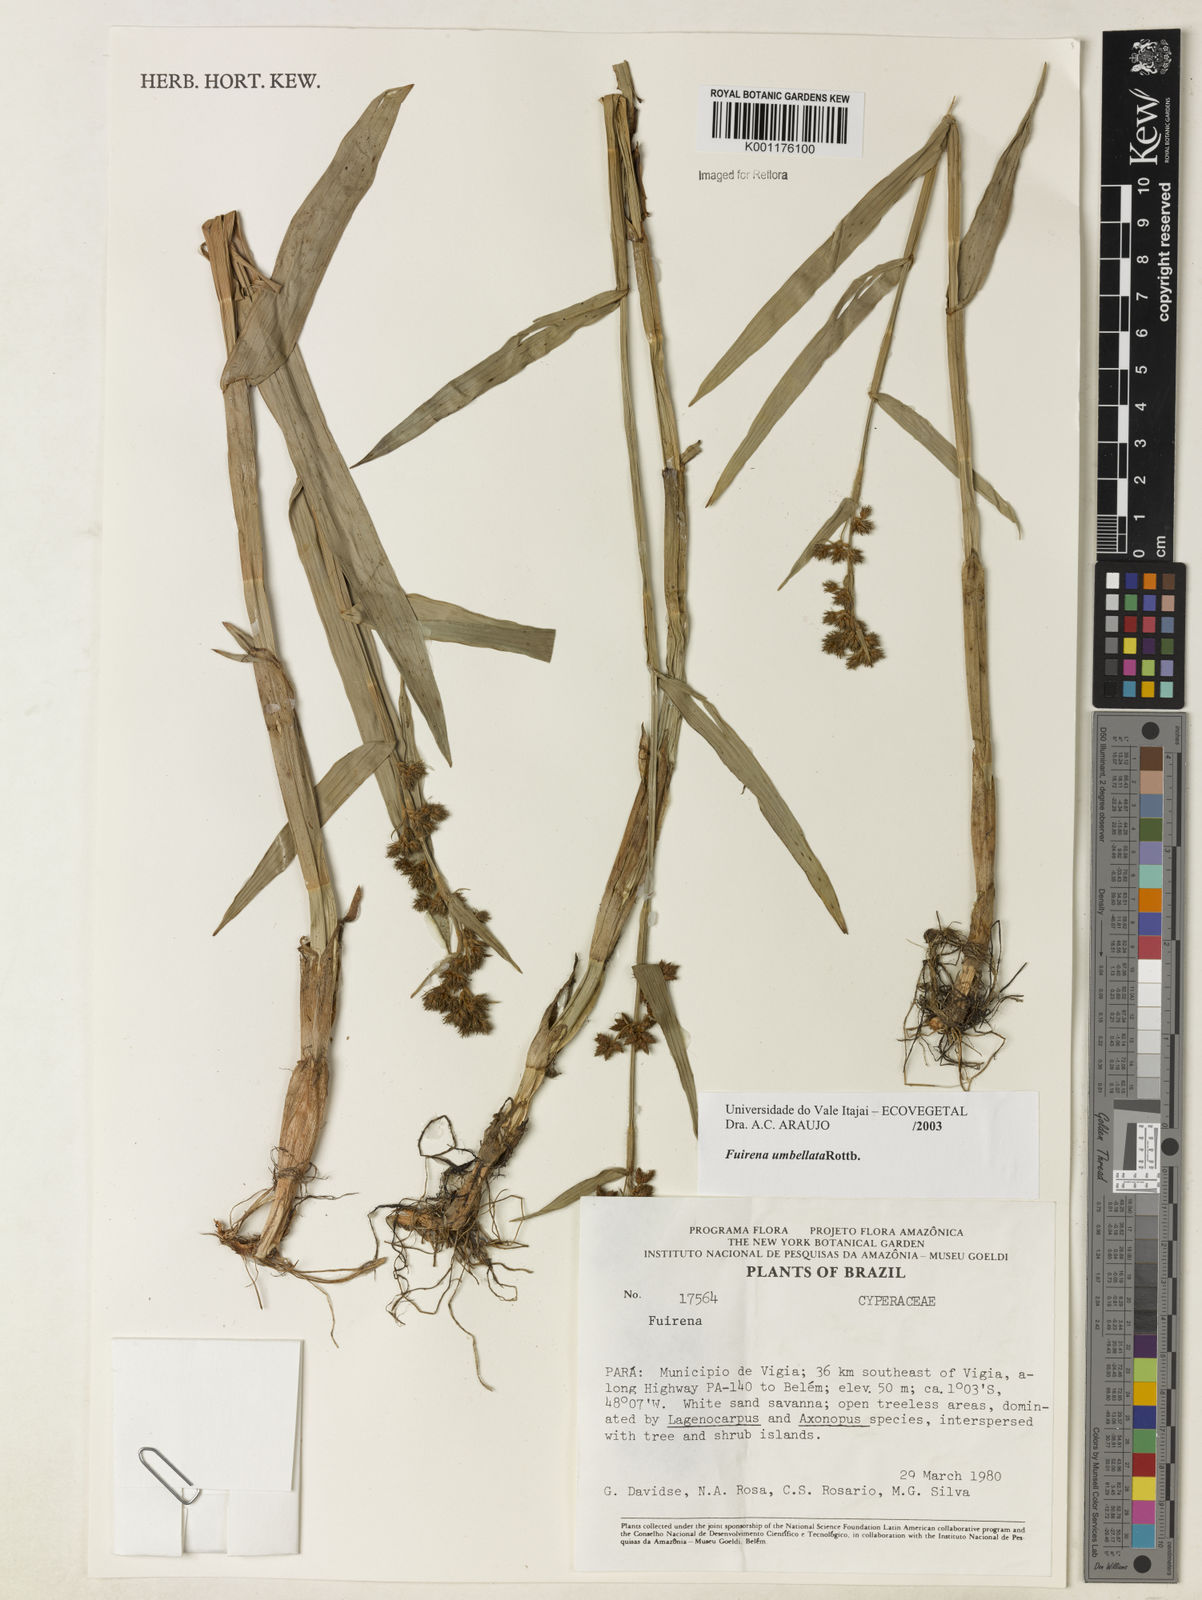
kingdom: Plantae
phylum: Tracheophyta
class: Liliopsida
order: Poales
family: Cyperaceae
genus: Fuirena
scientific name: Fuirena umbellata
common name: Yefen
